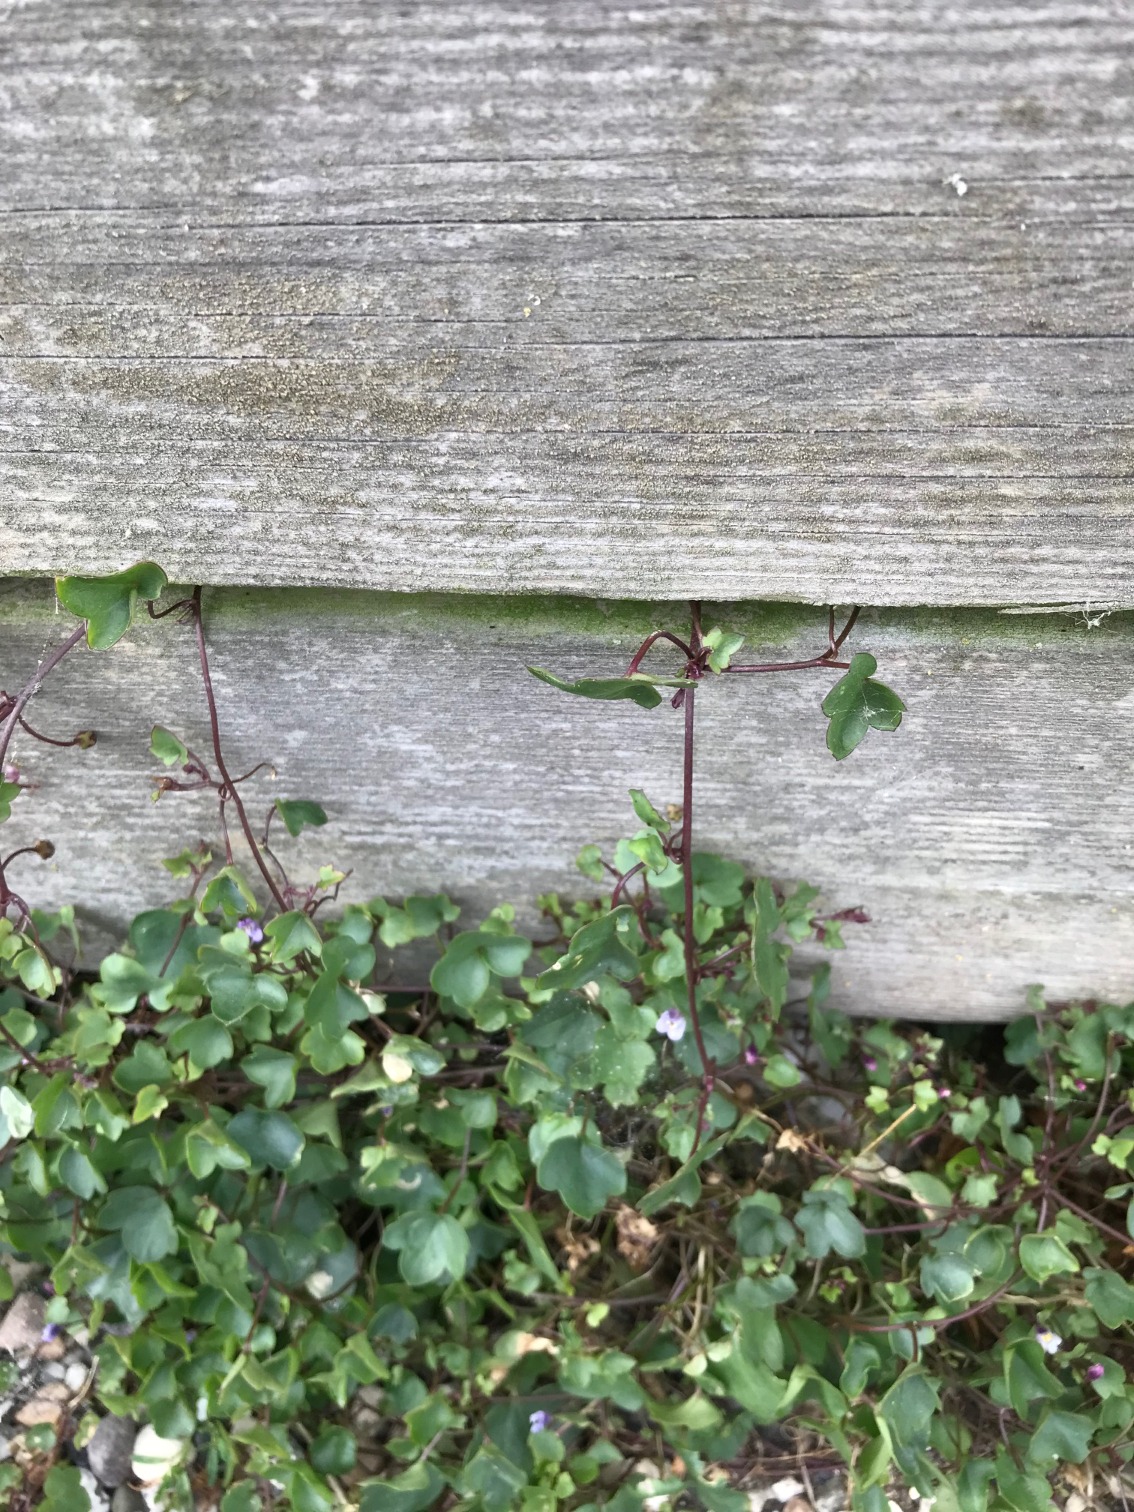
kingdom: Plantae
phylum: Tracheophyta
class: Magnoliopsida
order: Lamiales
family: Plantaginaceae
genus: Cymbalaria
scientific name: Cymbalaria muralis
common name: Vedbend-torskemund
